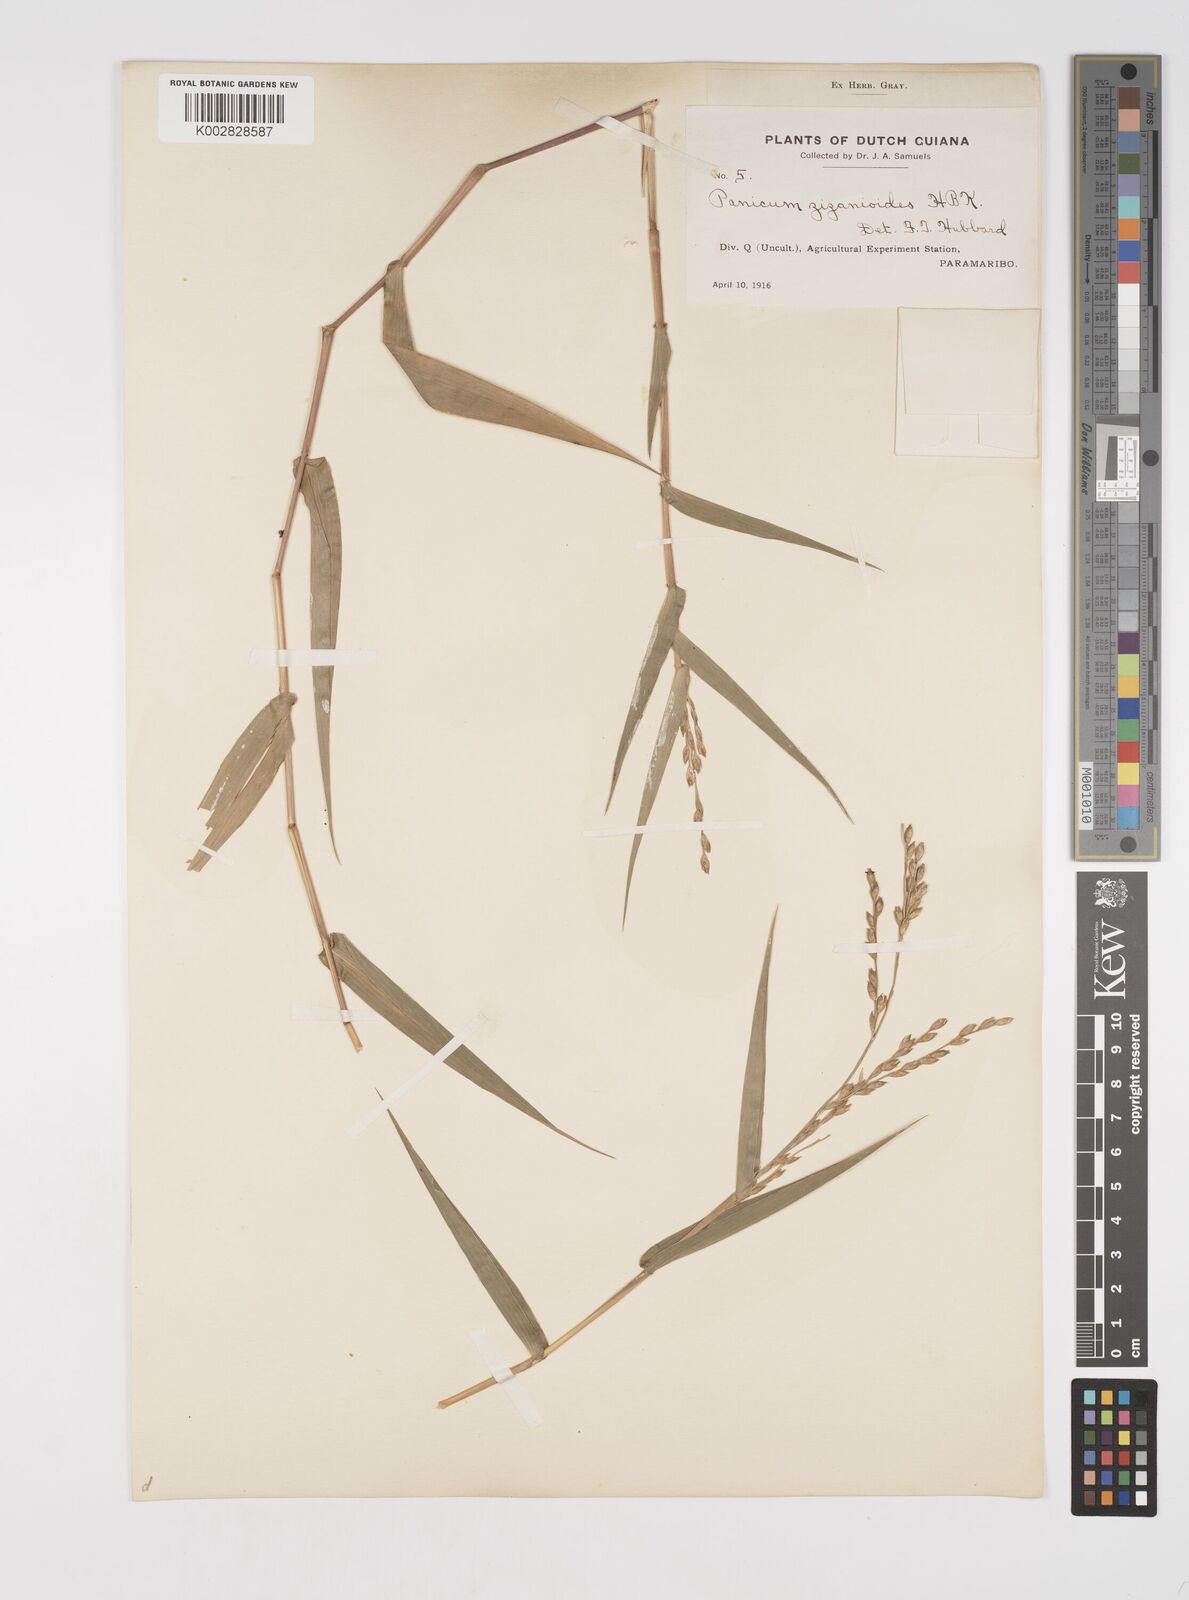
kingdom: Plantae
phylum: Tracheophyta
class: Liliopsida
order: Poales
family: Poaceae
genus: Acroceras
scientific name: Acroceras zizanioides
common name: Oat grass
